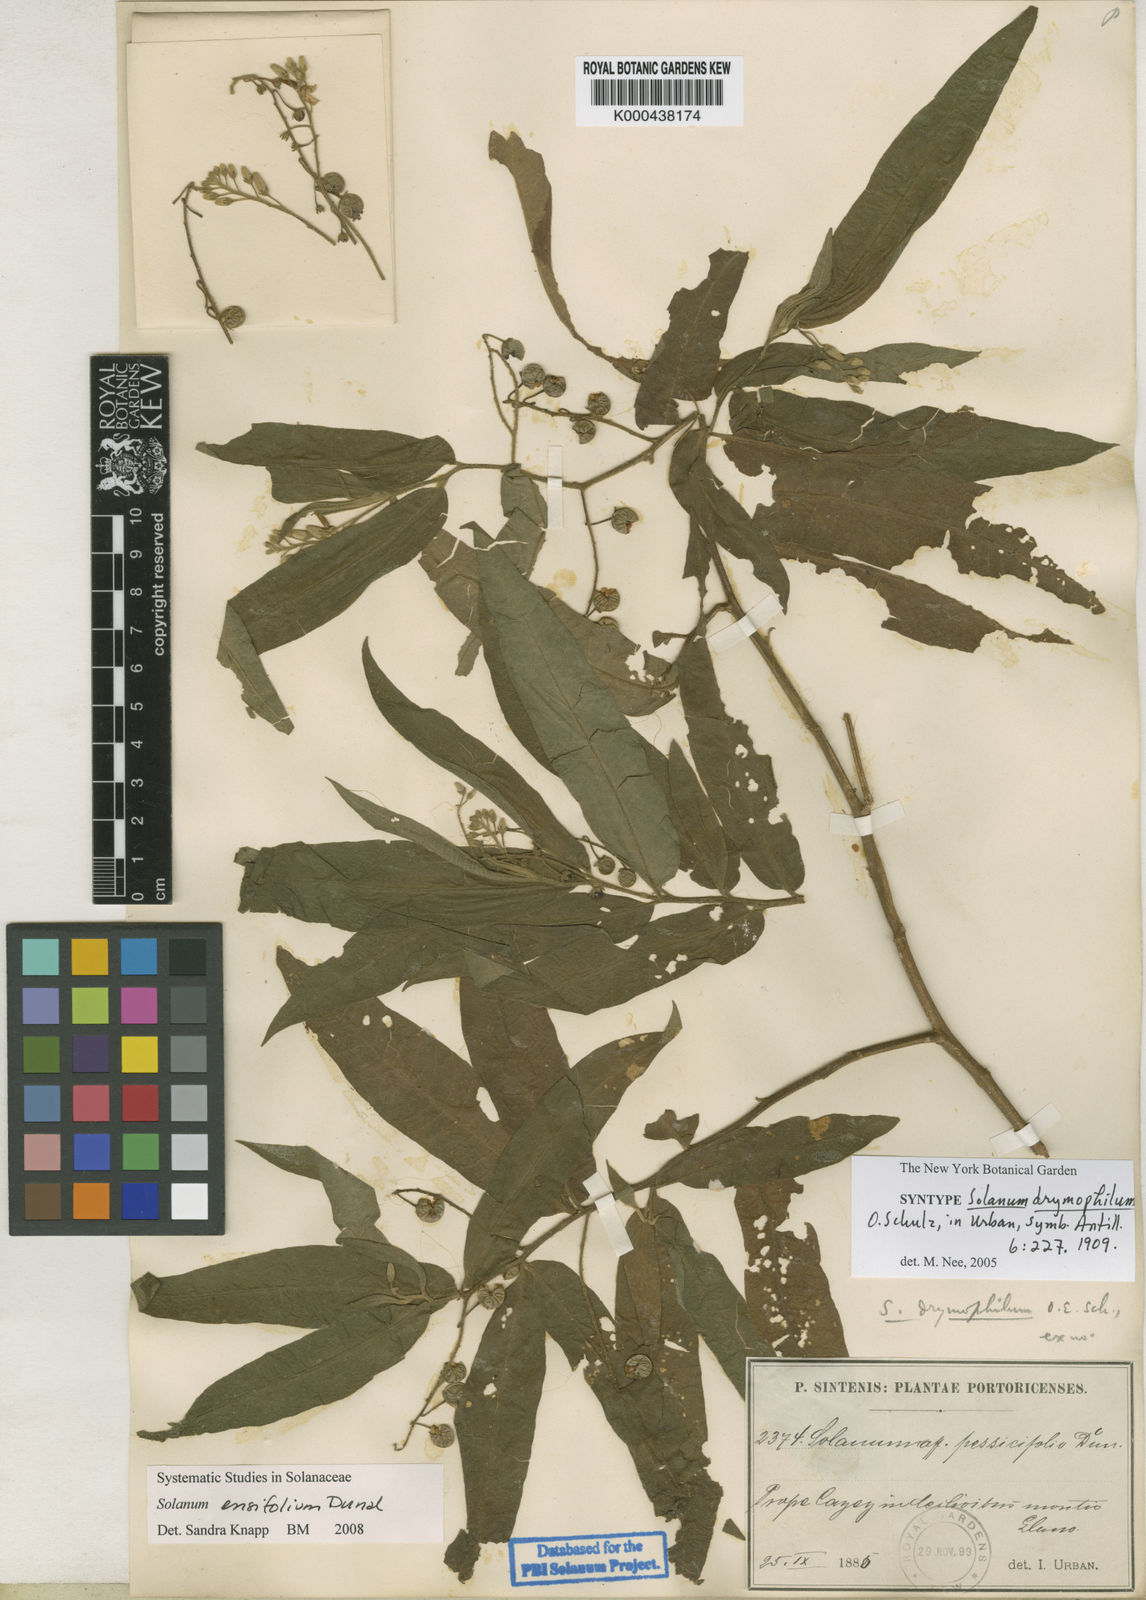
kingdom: Plantae
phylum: Tracheophyta
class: Magnoliopsida
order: Solanales
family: Solanaceae
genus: Solanum
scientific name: Solanum ensifolium
